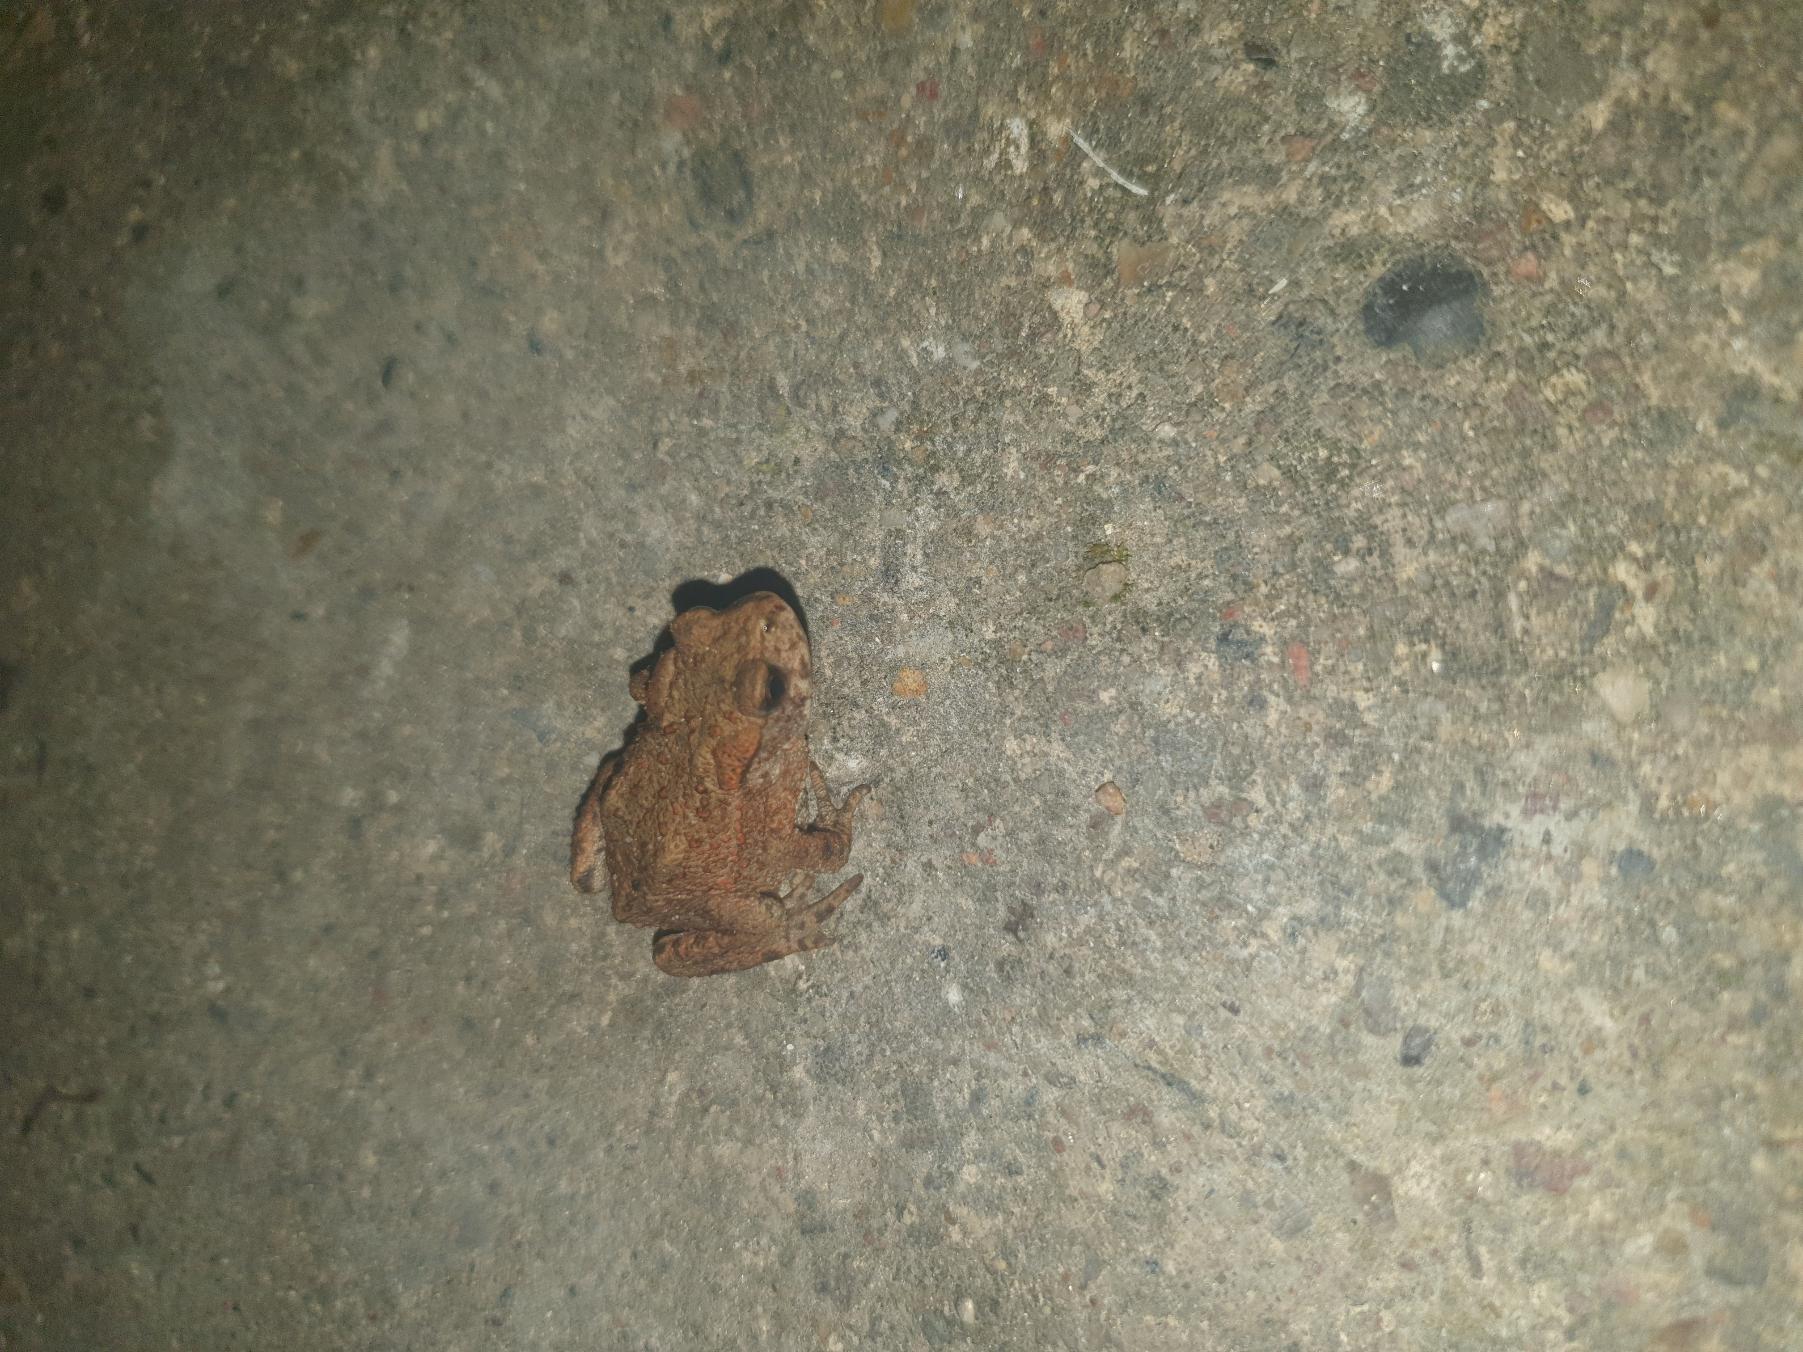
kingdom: Animalia
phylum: Chordata
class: Amphibia
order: Anura
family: Bufonidae
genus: Bufo
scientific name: Bufo bufo
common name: Skrubtudse
